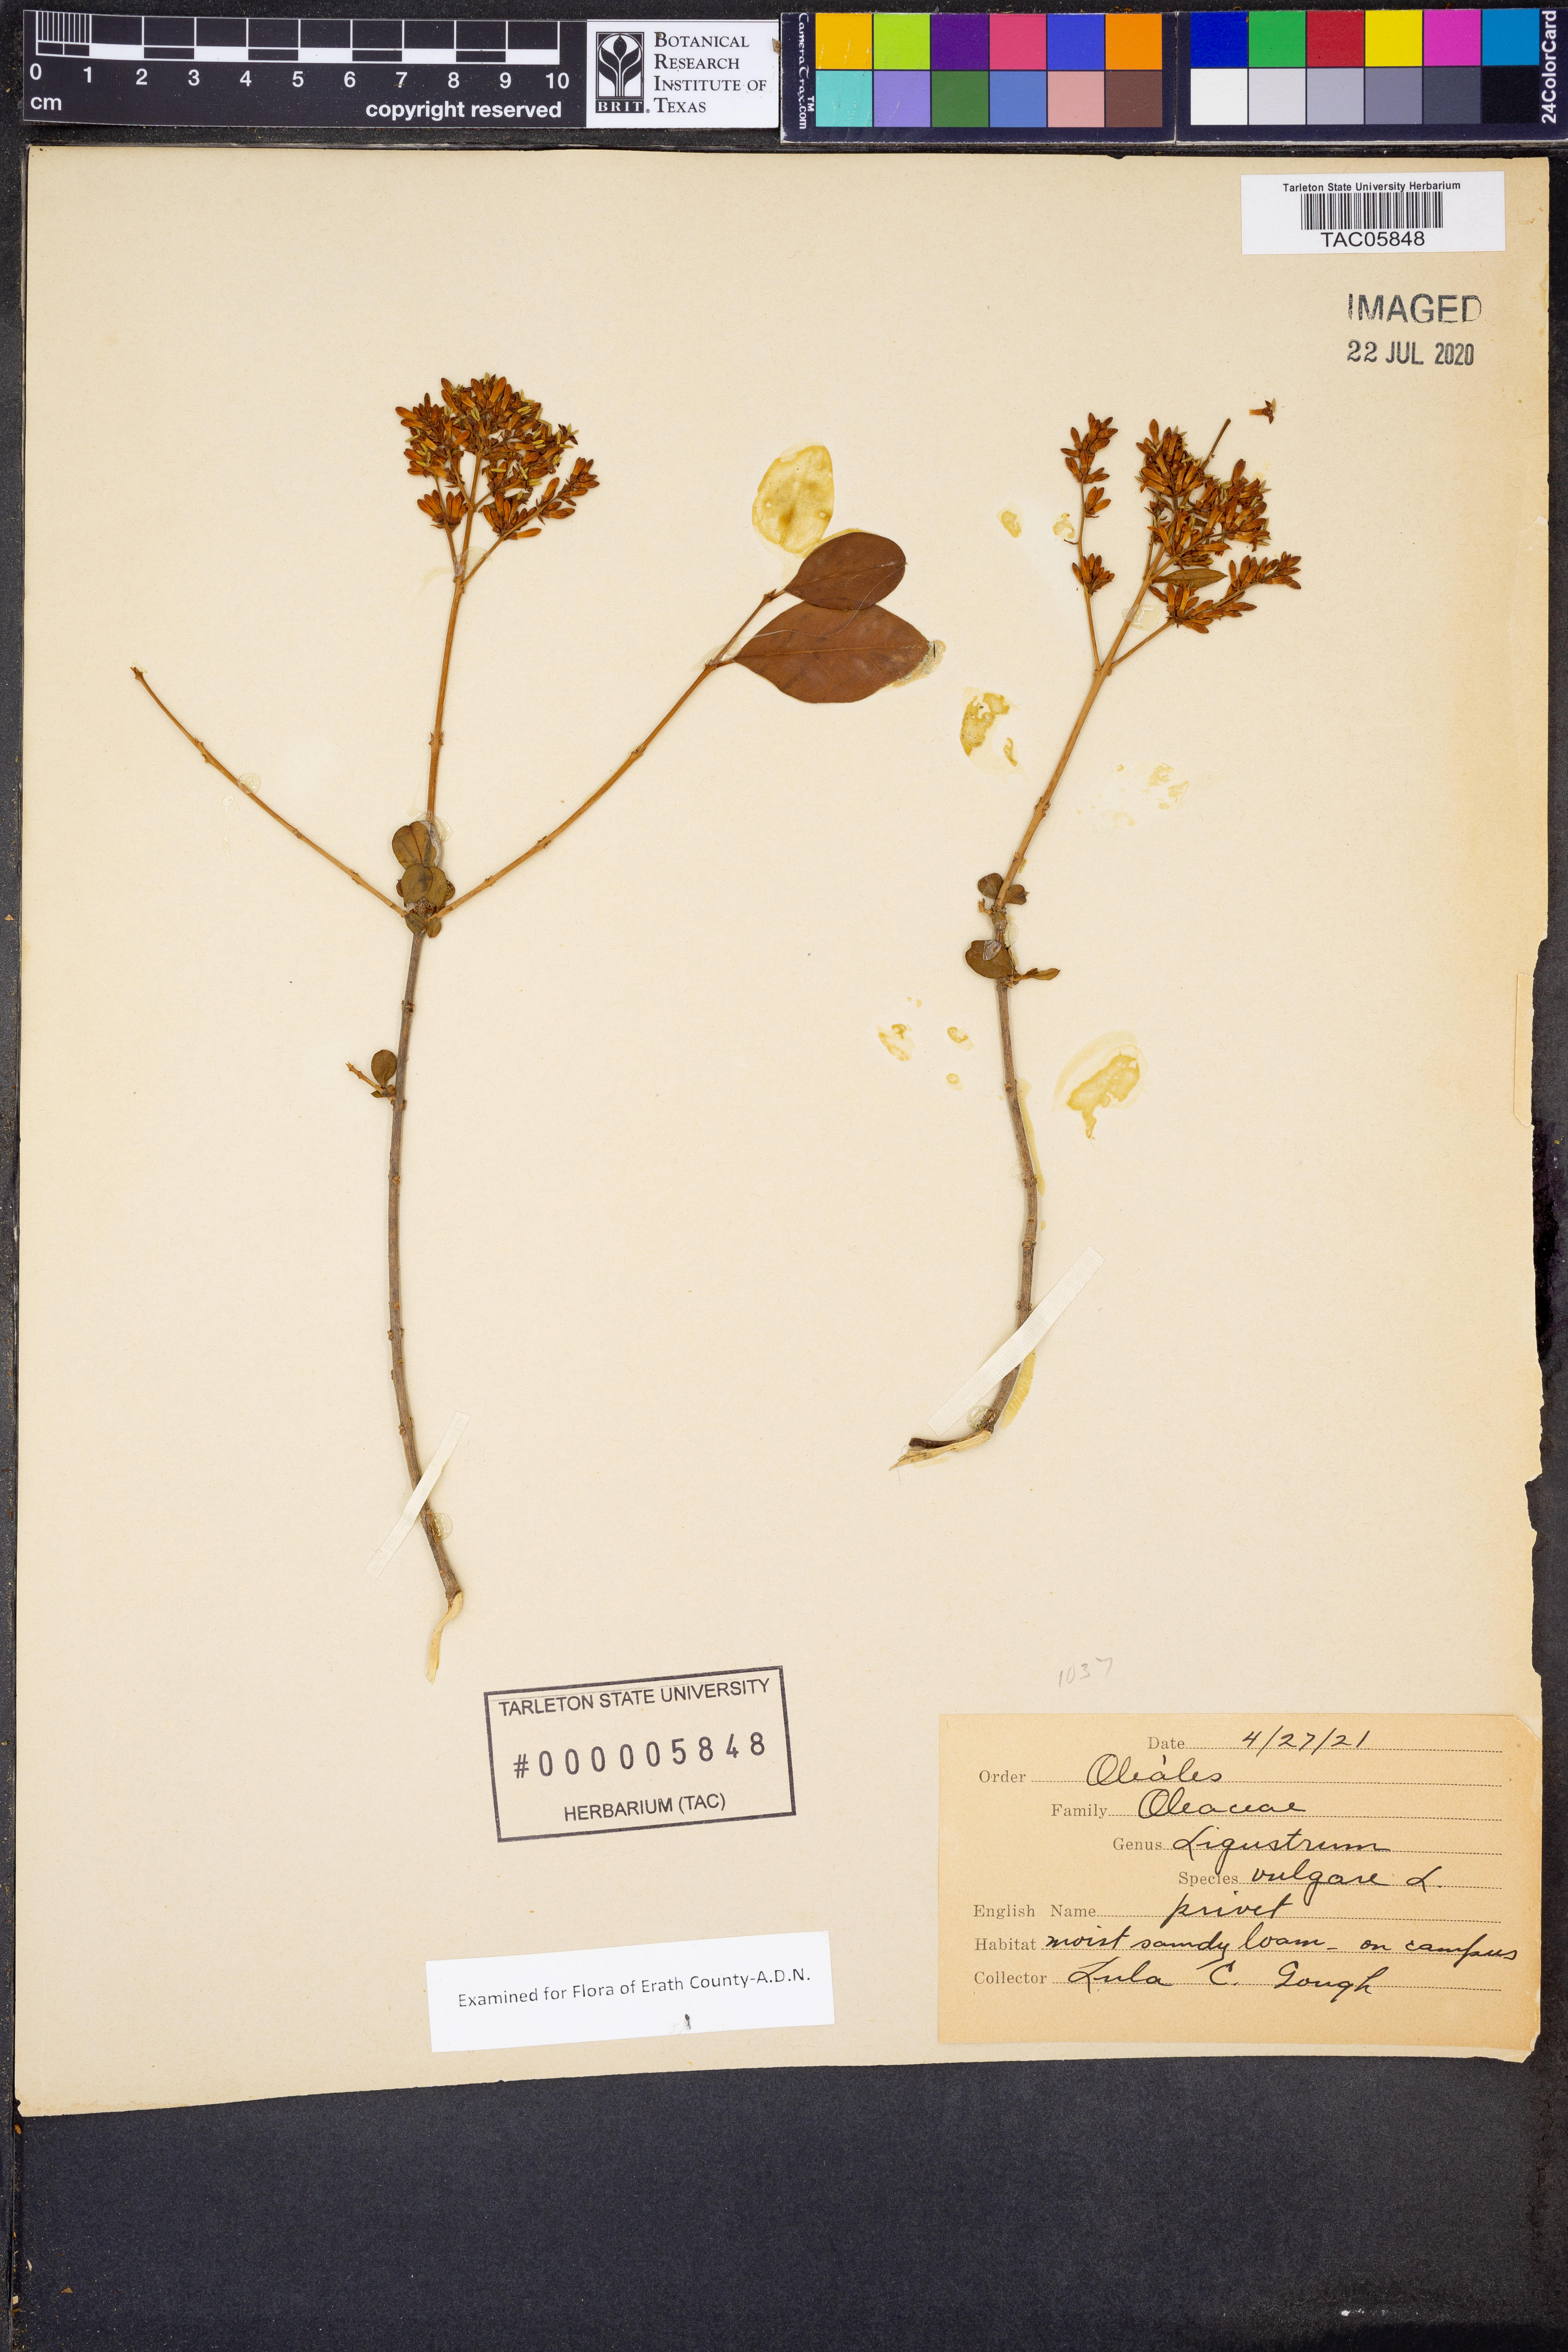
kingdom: Plantae
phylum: Tracheophyta
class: Magnoliopsida
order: Lamiales
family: Oleaceae
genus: Ligustrum
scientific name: Ligustrum vulgare
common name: Wild privet
